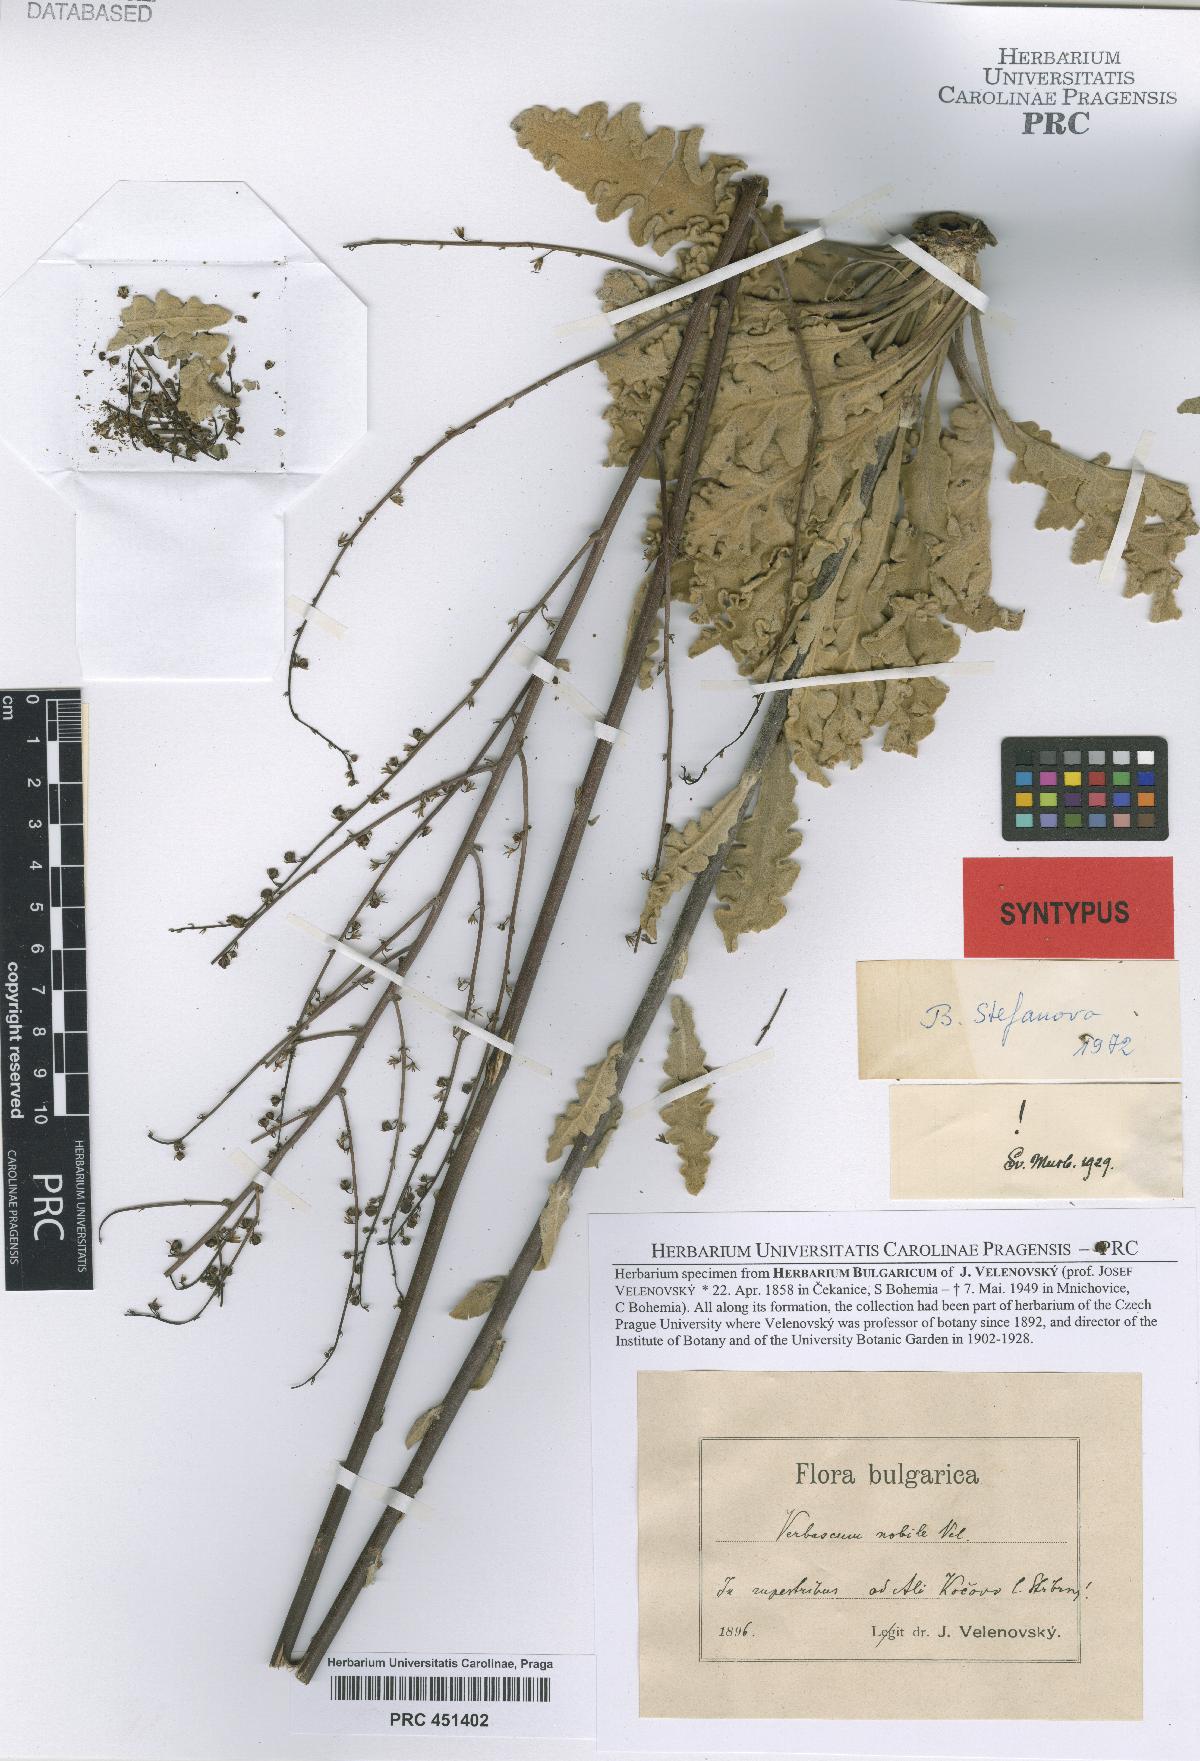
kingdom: Plantae
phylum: Tracheophyta
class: Magnoliopsida
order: Lamiales
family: Scrophulariaceae
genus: Verbascum
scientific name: Verbascum nobile
